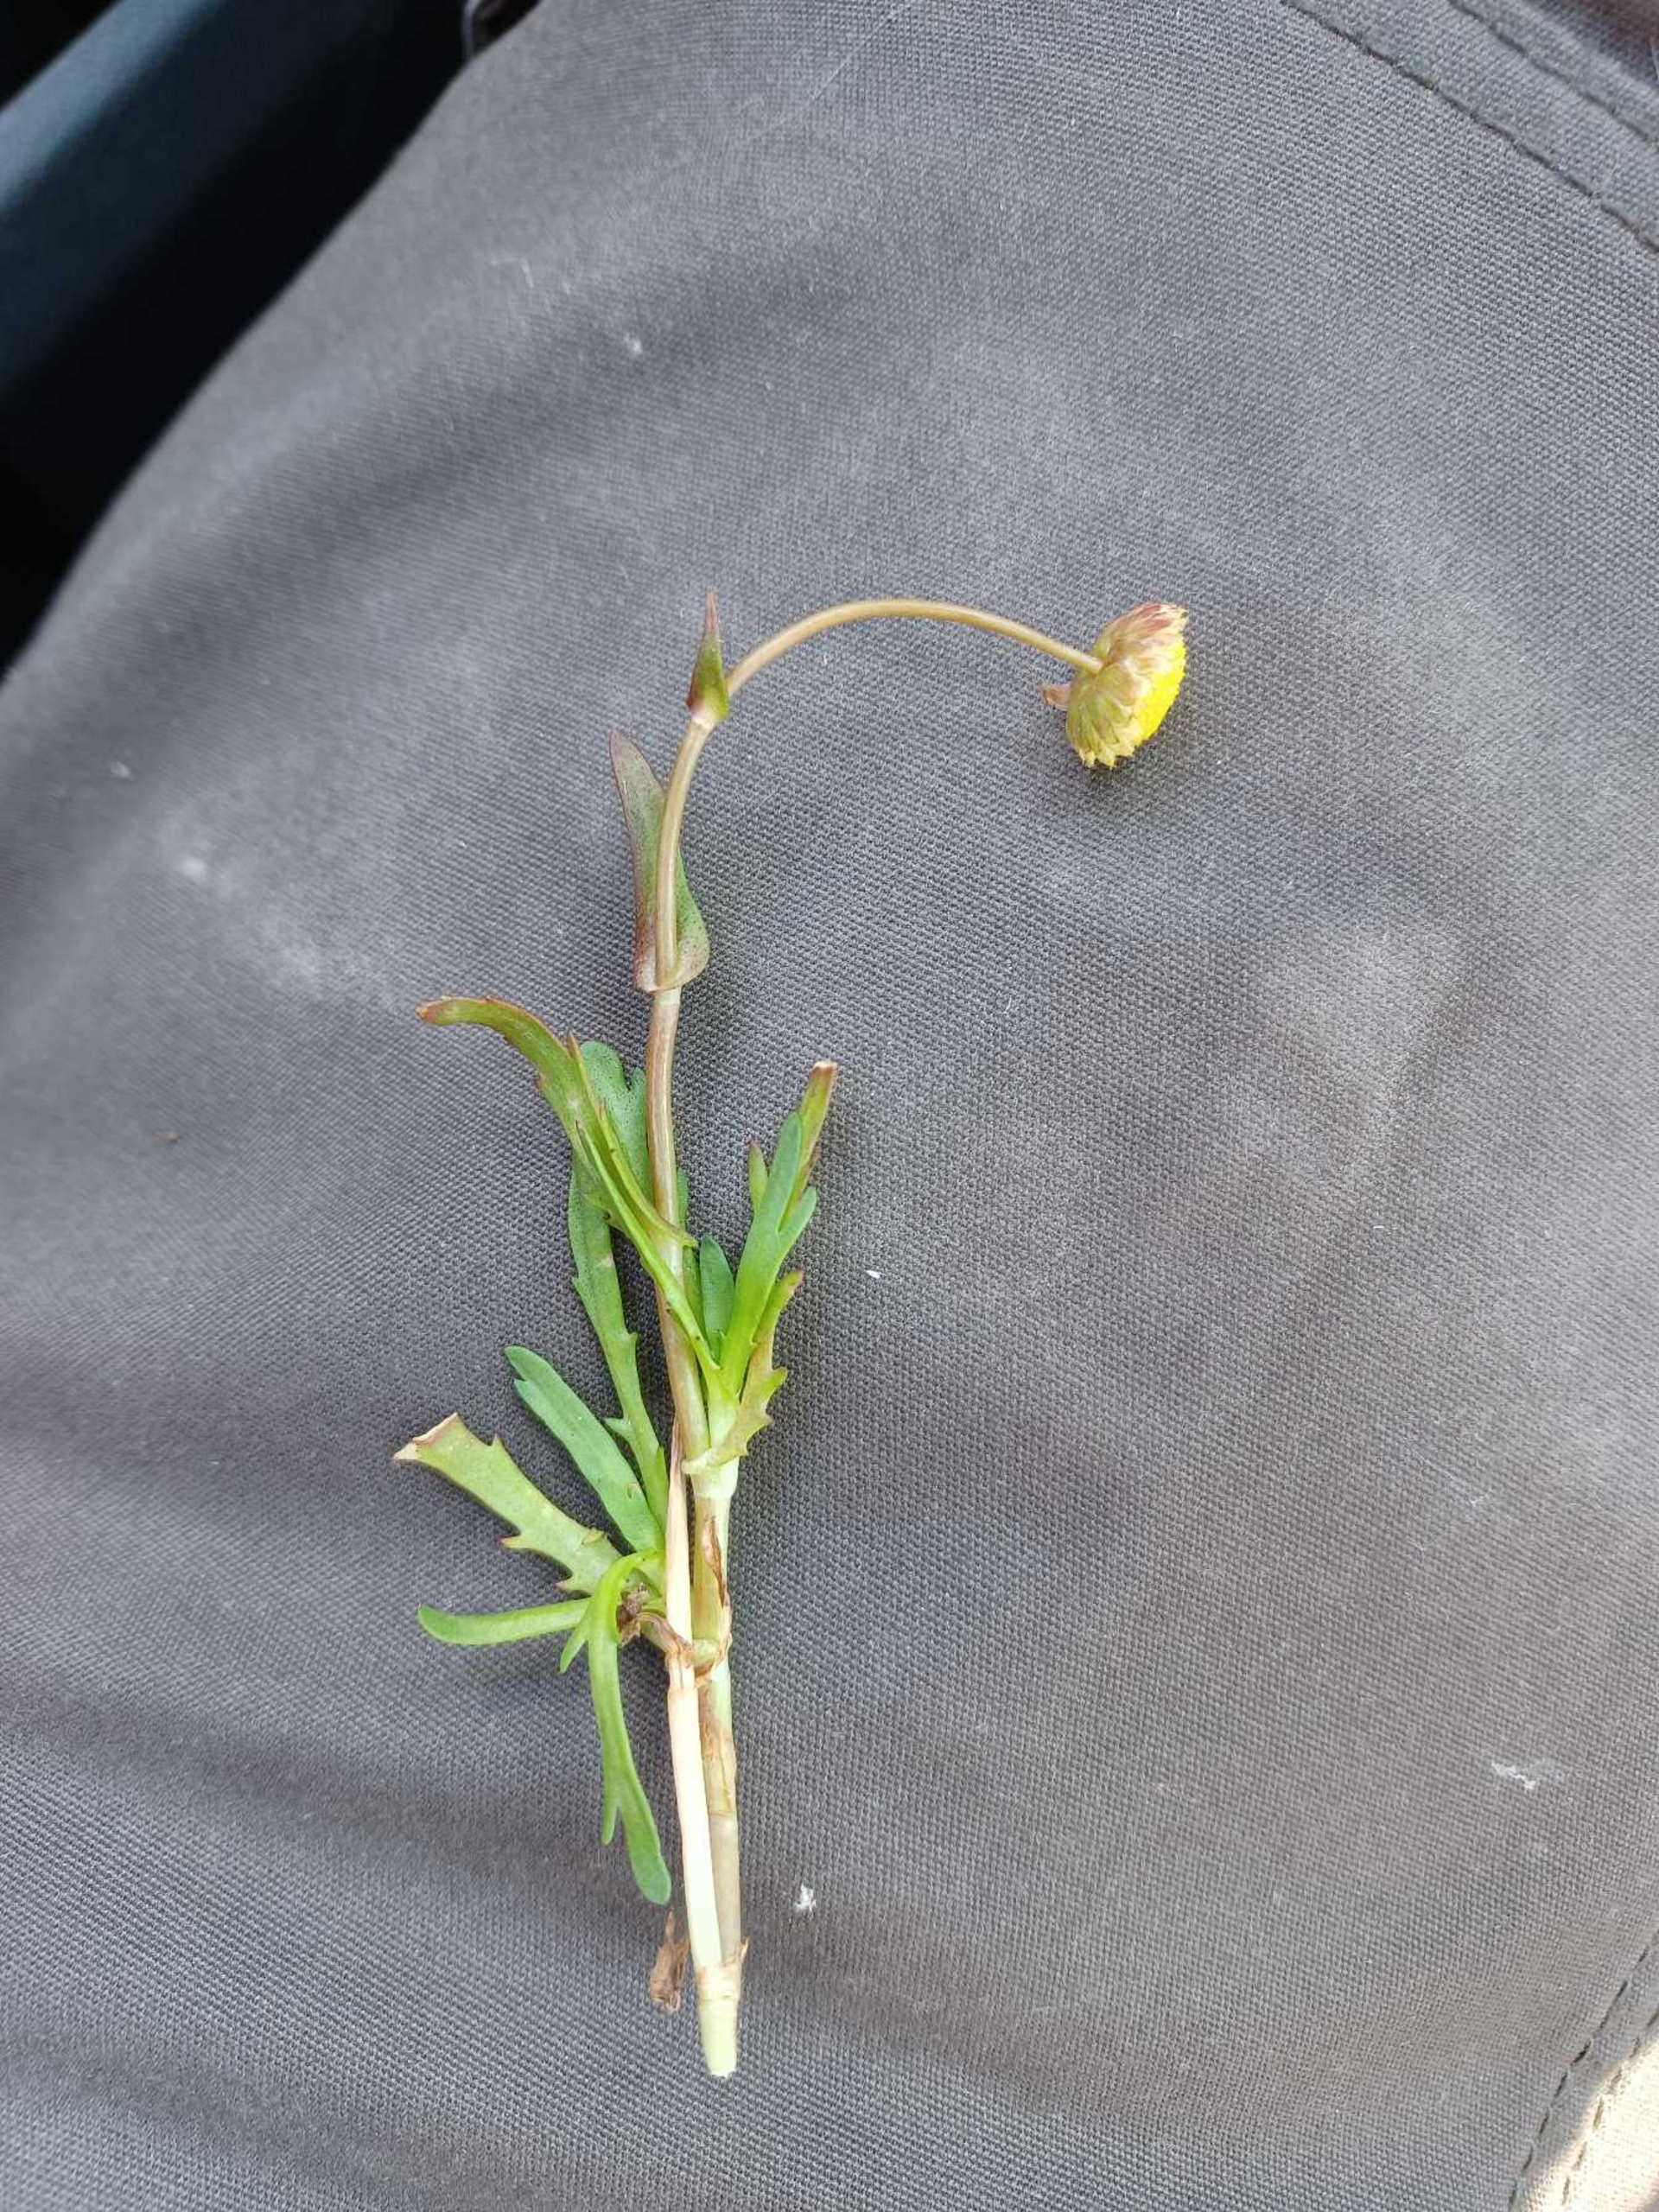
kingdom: Plantae
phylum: Tracheophyta
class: Magnoliopsida
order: Asterales
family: Asteraceae
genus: Cotula
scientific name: Cotula coronopifolia
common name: Firkløft
